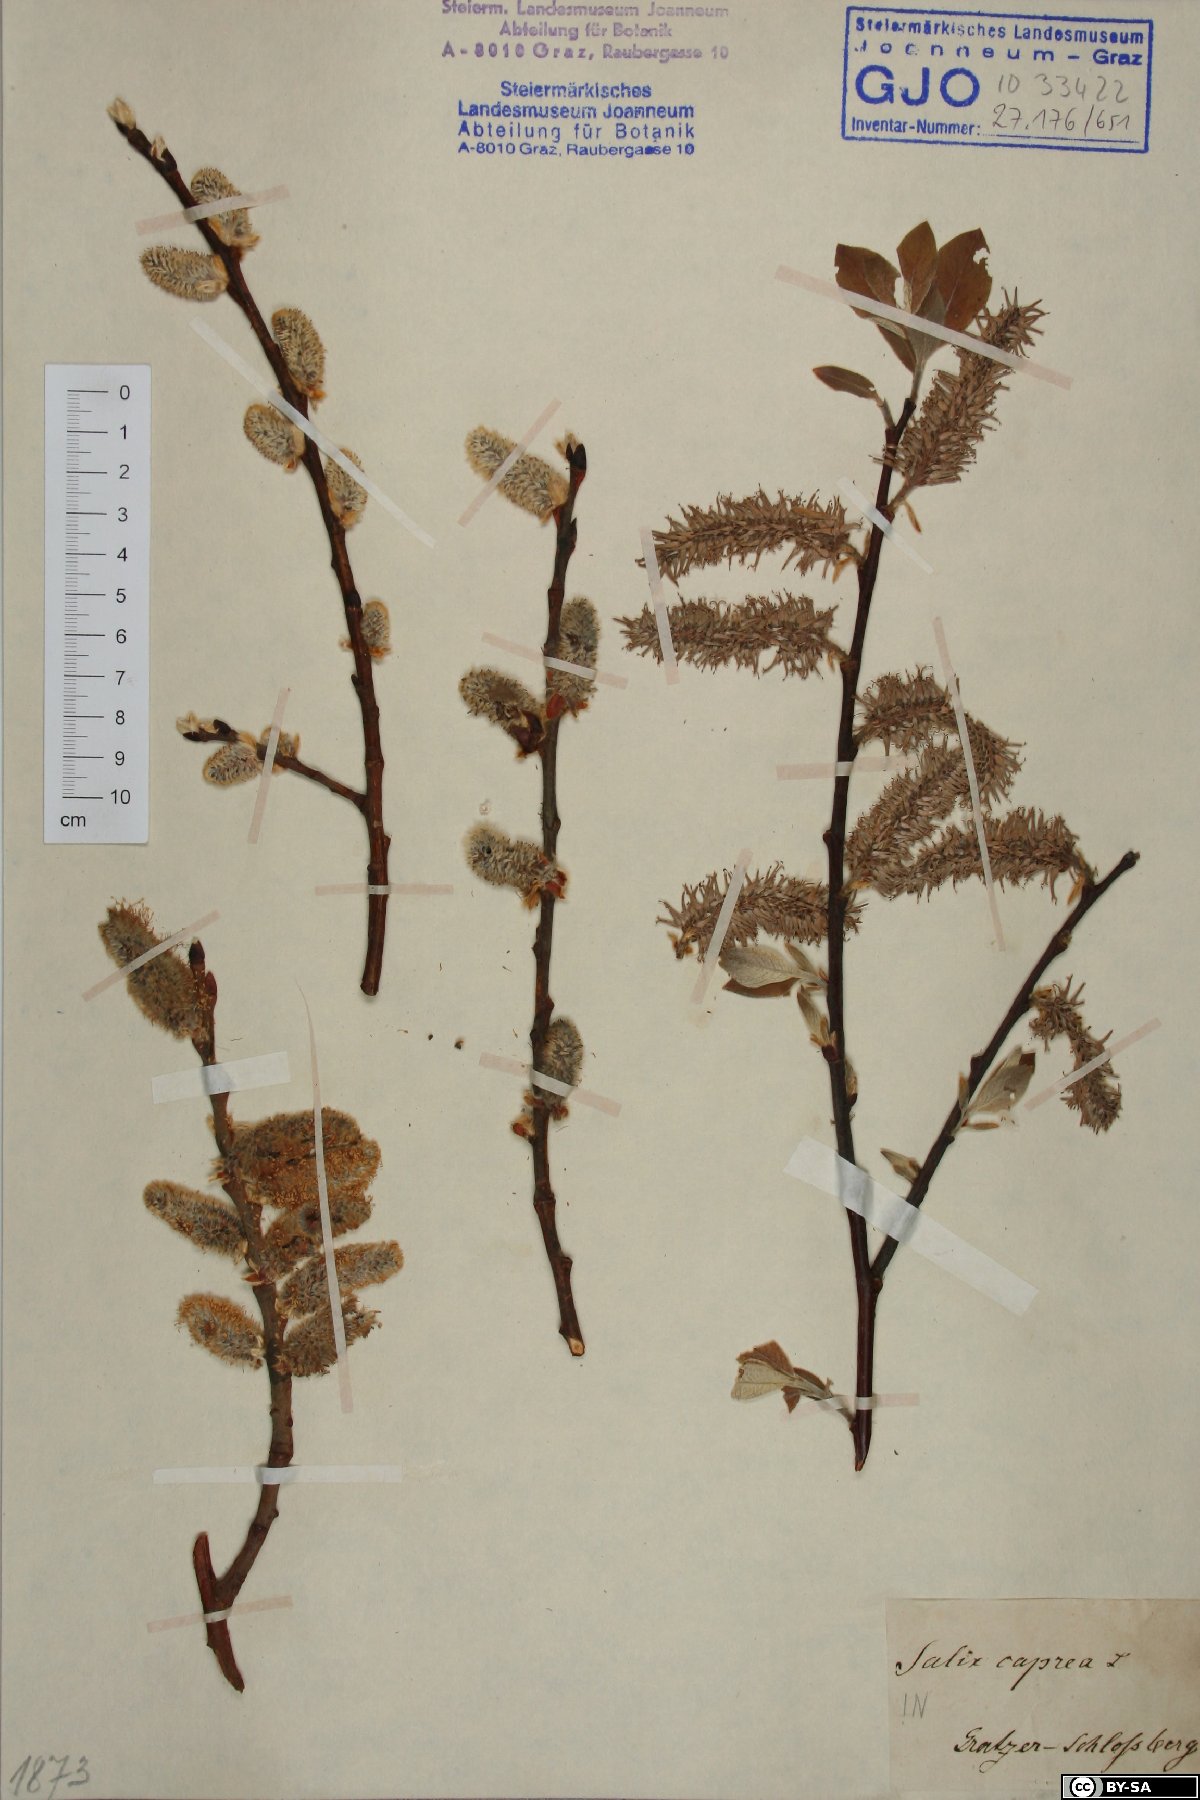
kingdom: Plantae
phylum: Tracheophyta
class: Magnoliopsida
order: Malpighiales
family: Salicaceae
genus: Salix
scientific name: Salix caprea
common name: Goat willow
